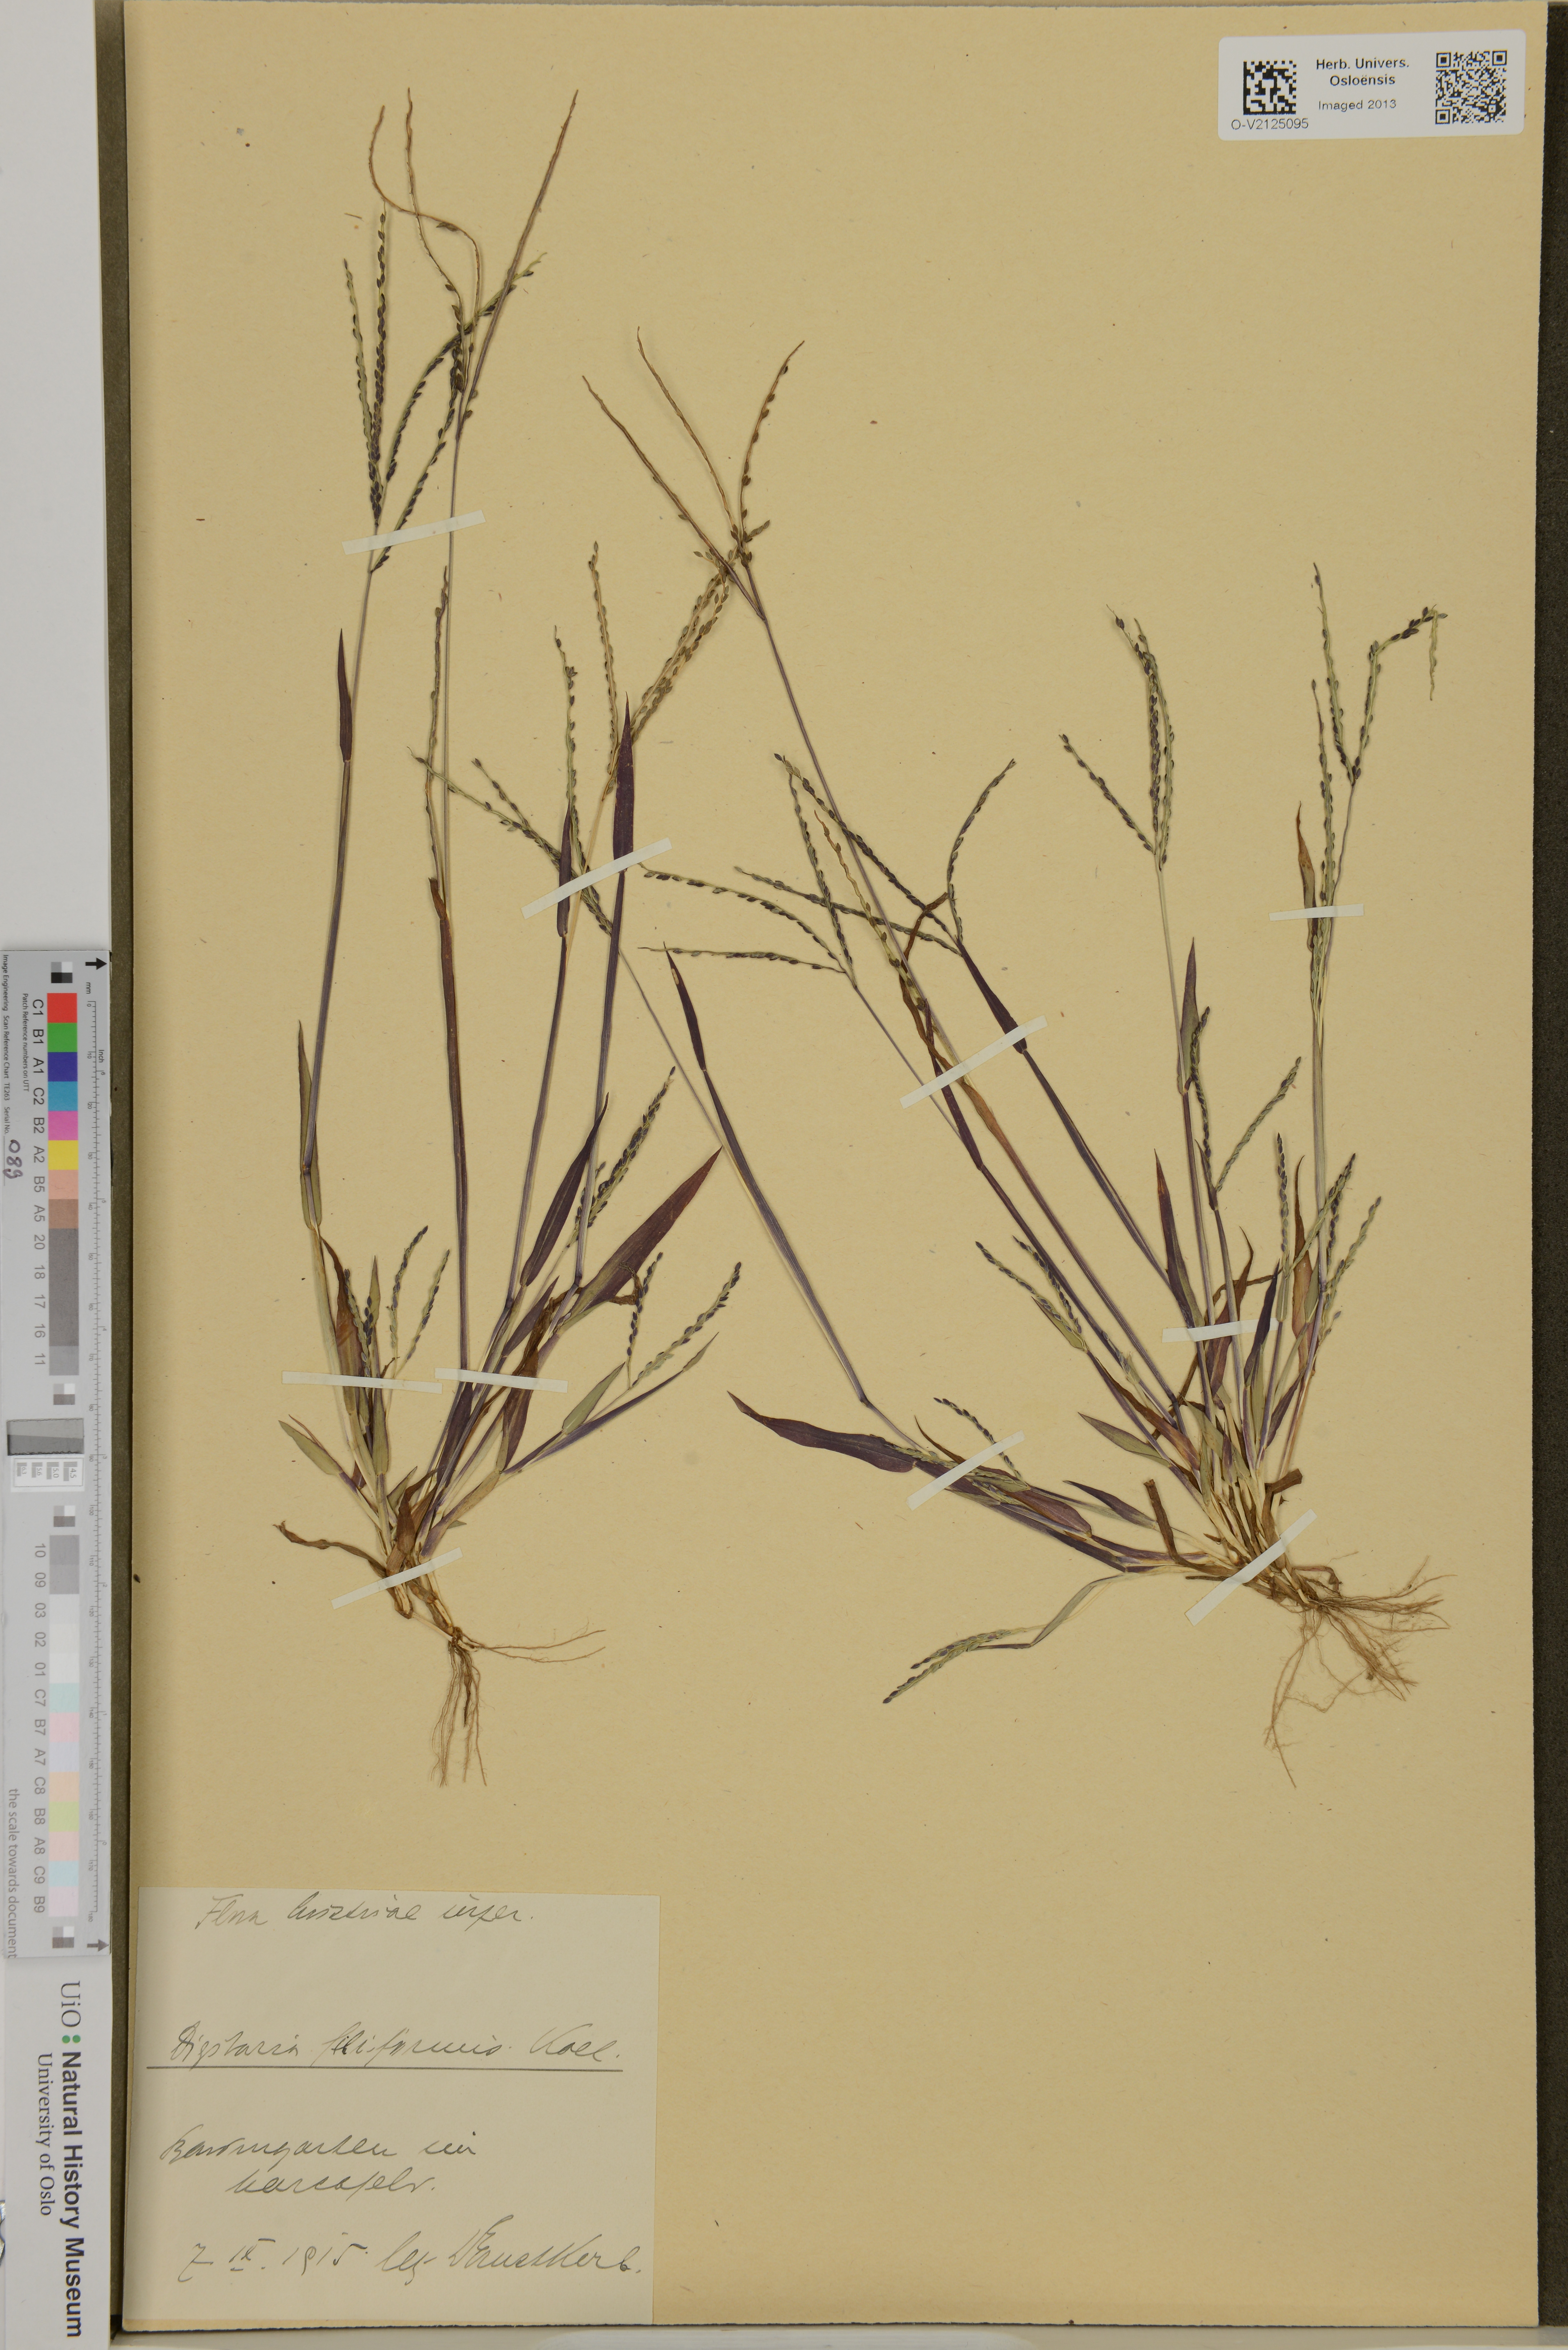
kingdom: Plantae
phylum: Tracheophyta
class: Liliopsida
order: Poales
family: Poaceae
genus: Panicum
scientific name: Panicum filiforme
